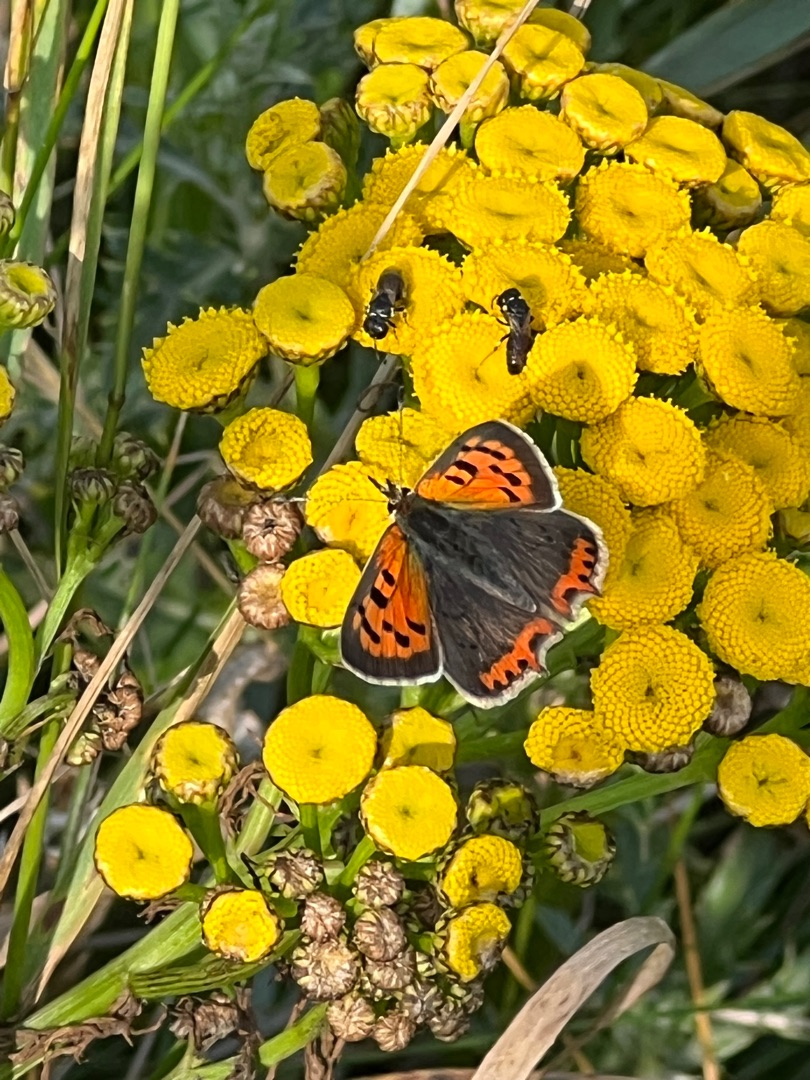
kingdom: Animalia
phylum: Arthropoda
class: Insecta
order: Lepidoptera
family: Lycaenidae
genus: Lycaena
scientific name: Lycaena phlaeas
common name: Lille ildfugl
